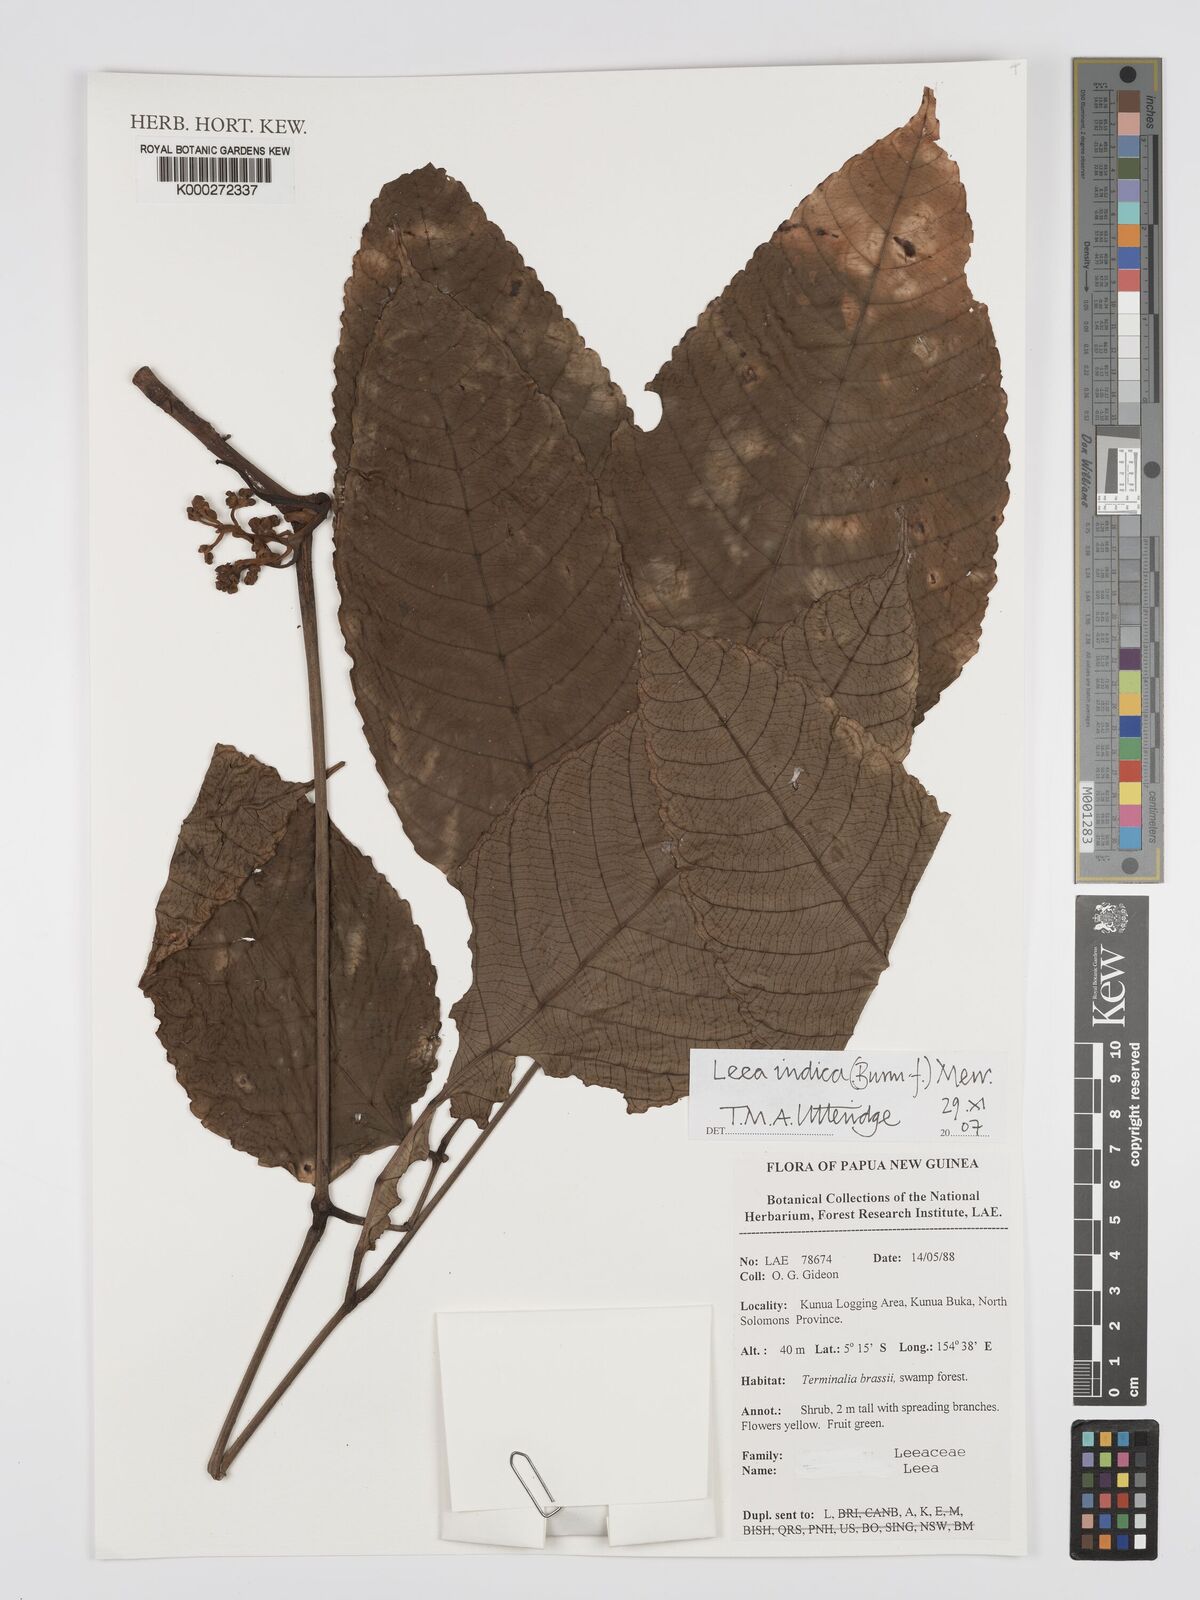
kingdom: Plantae
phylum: Tracheophyta
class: Magnoliopsida
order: Vitales
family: Vitaceae
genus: Leea
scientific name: Leea indica
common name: Bandicoot-berry
